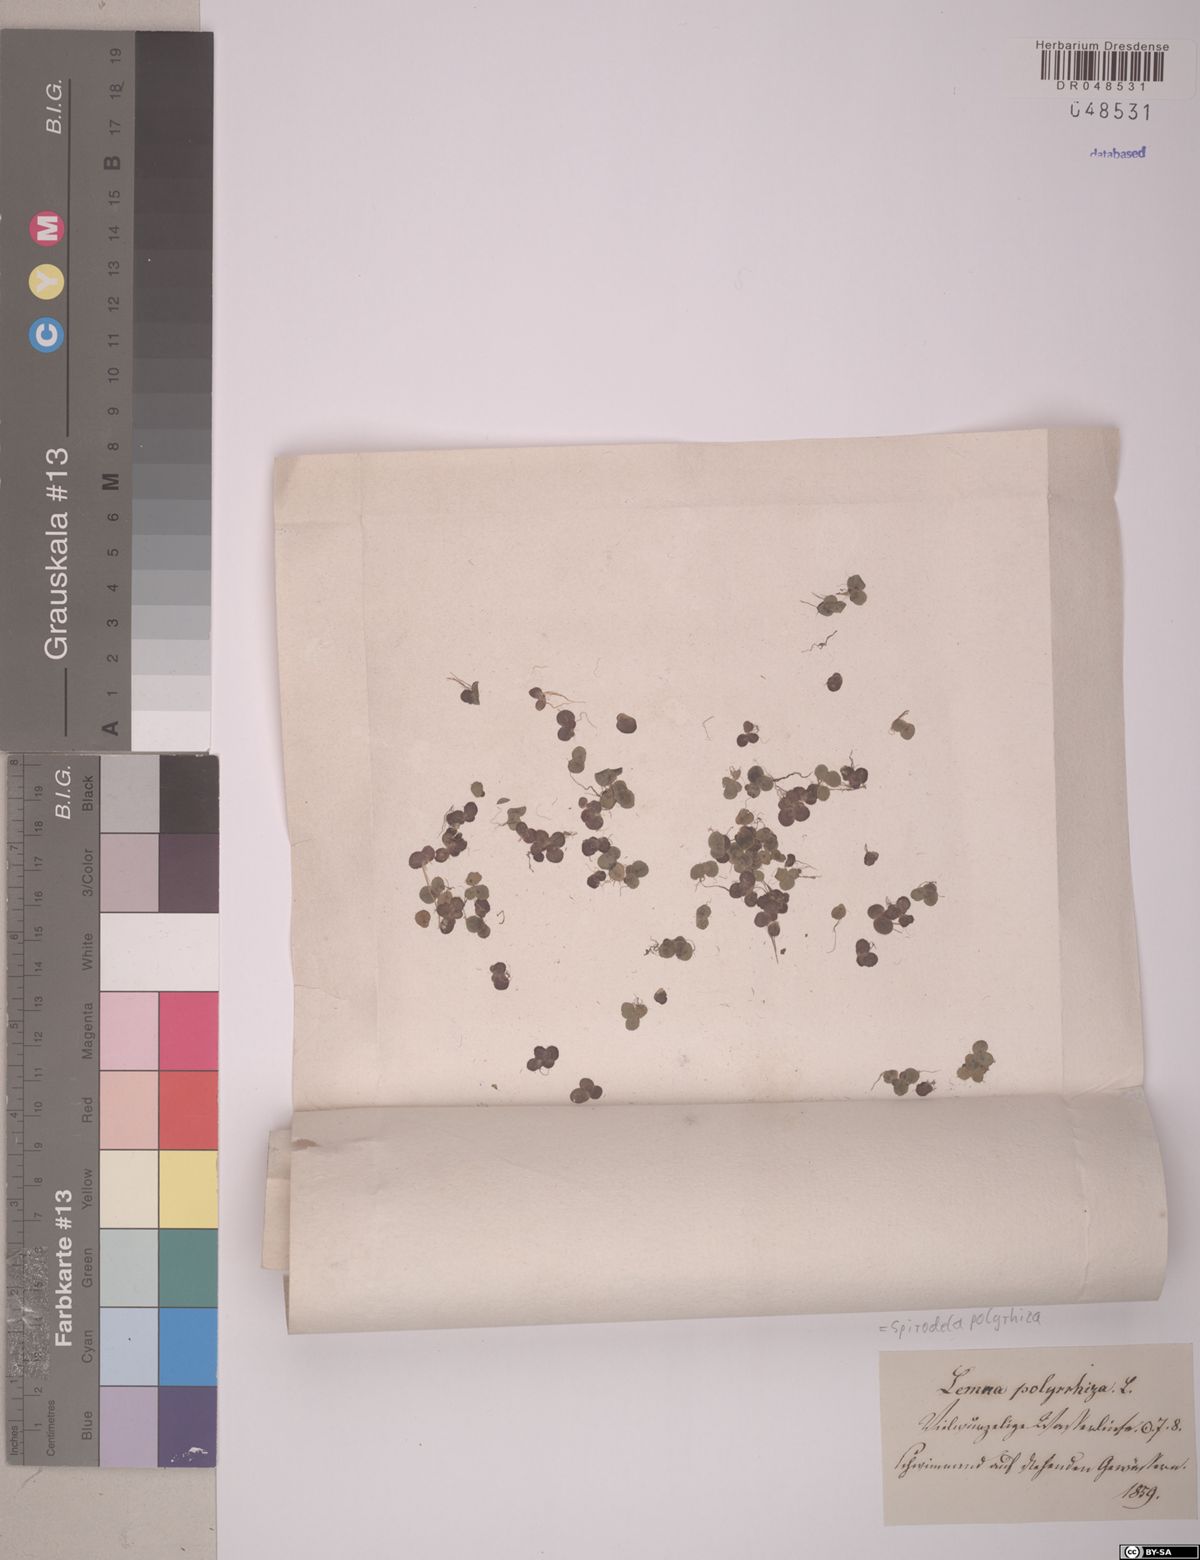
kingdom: Plantae
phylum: Tracheophyta
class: Liliopsida
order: Alismatales
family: Araceae
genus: Spirodela
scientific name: Spirodela polyrhiza
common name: Great duckweed
